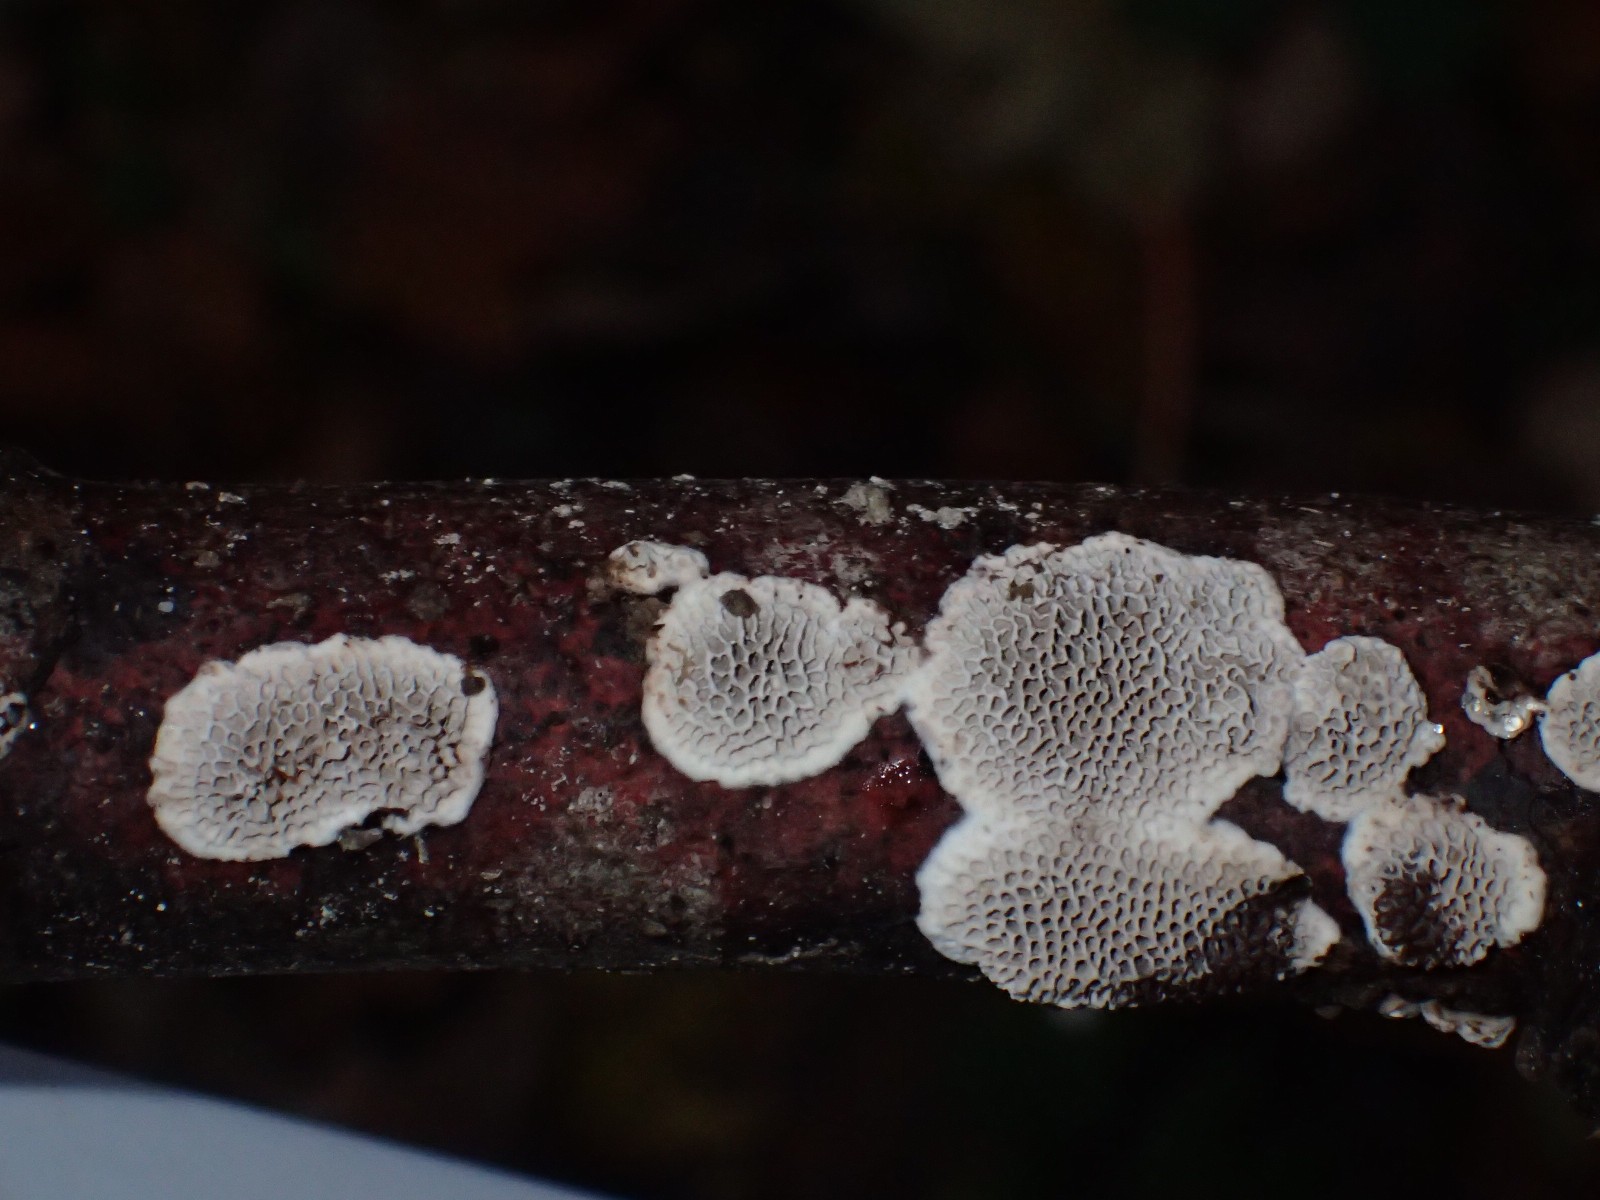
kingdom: Fungi
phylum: Basidiomycota
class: Agaricomycetes
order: Polyporales
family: Polyporaceae
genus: Podofomes
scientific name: Podofomes mollis
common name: blød begporesvamp
